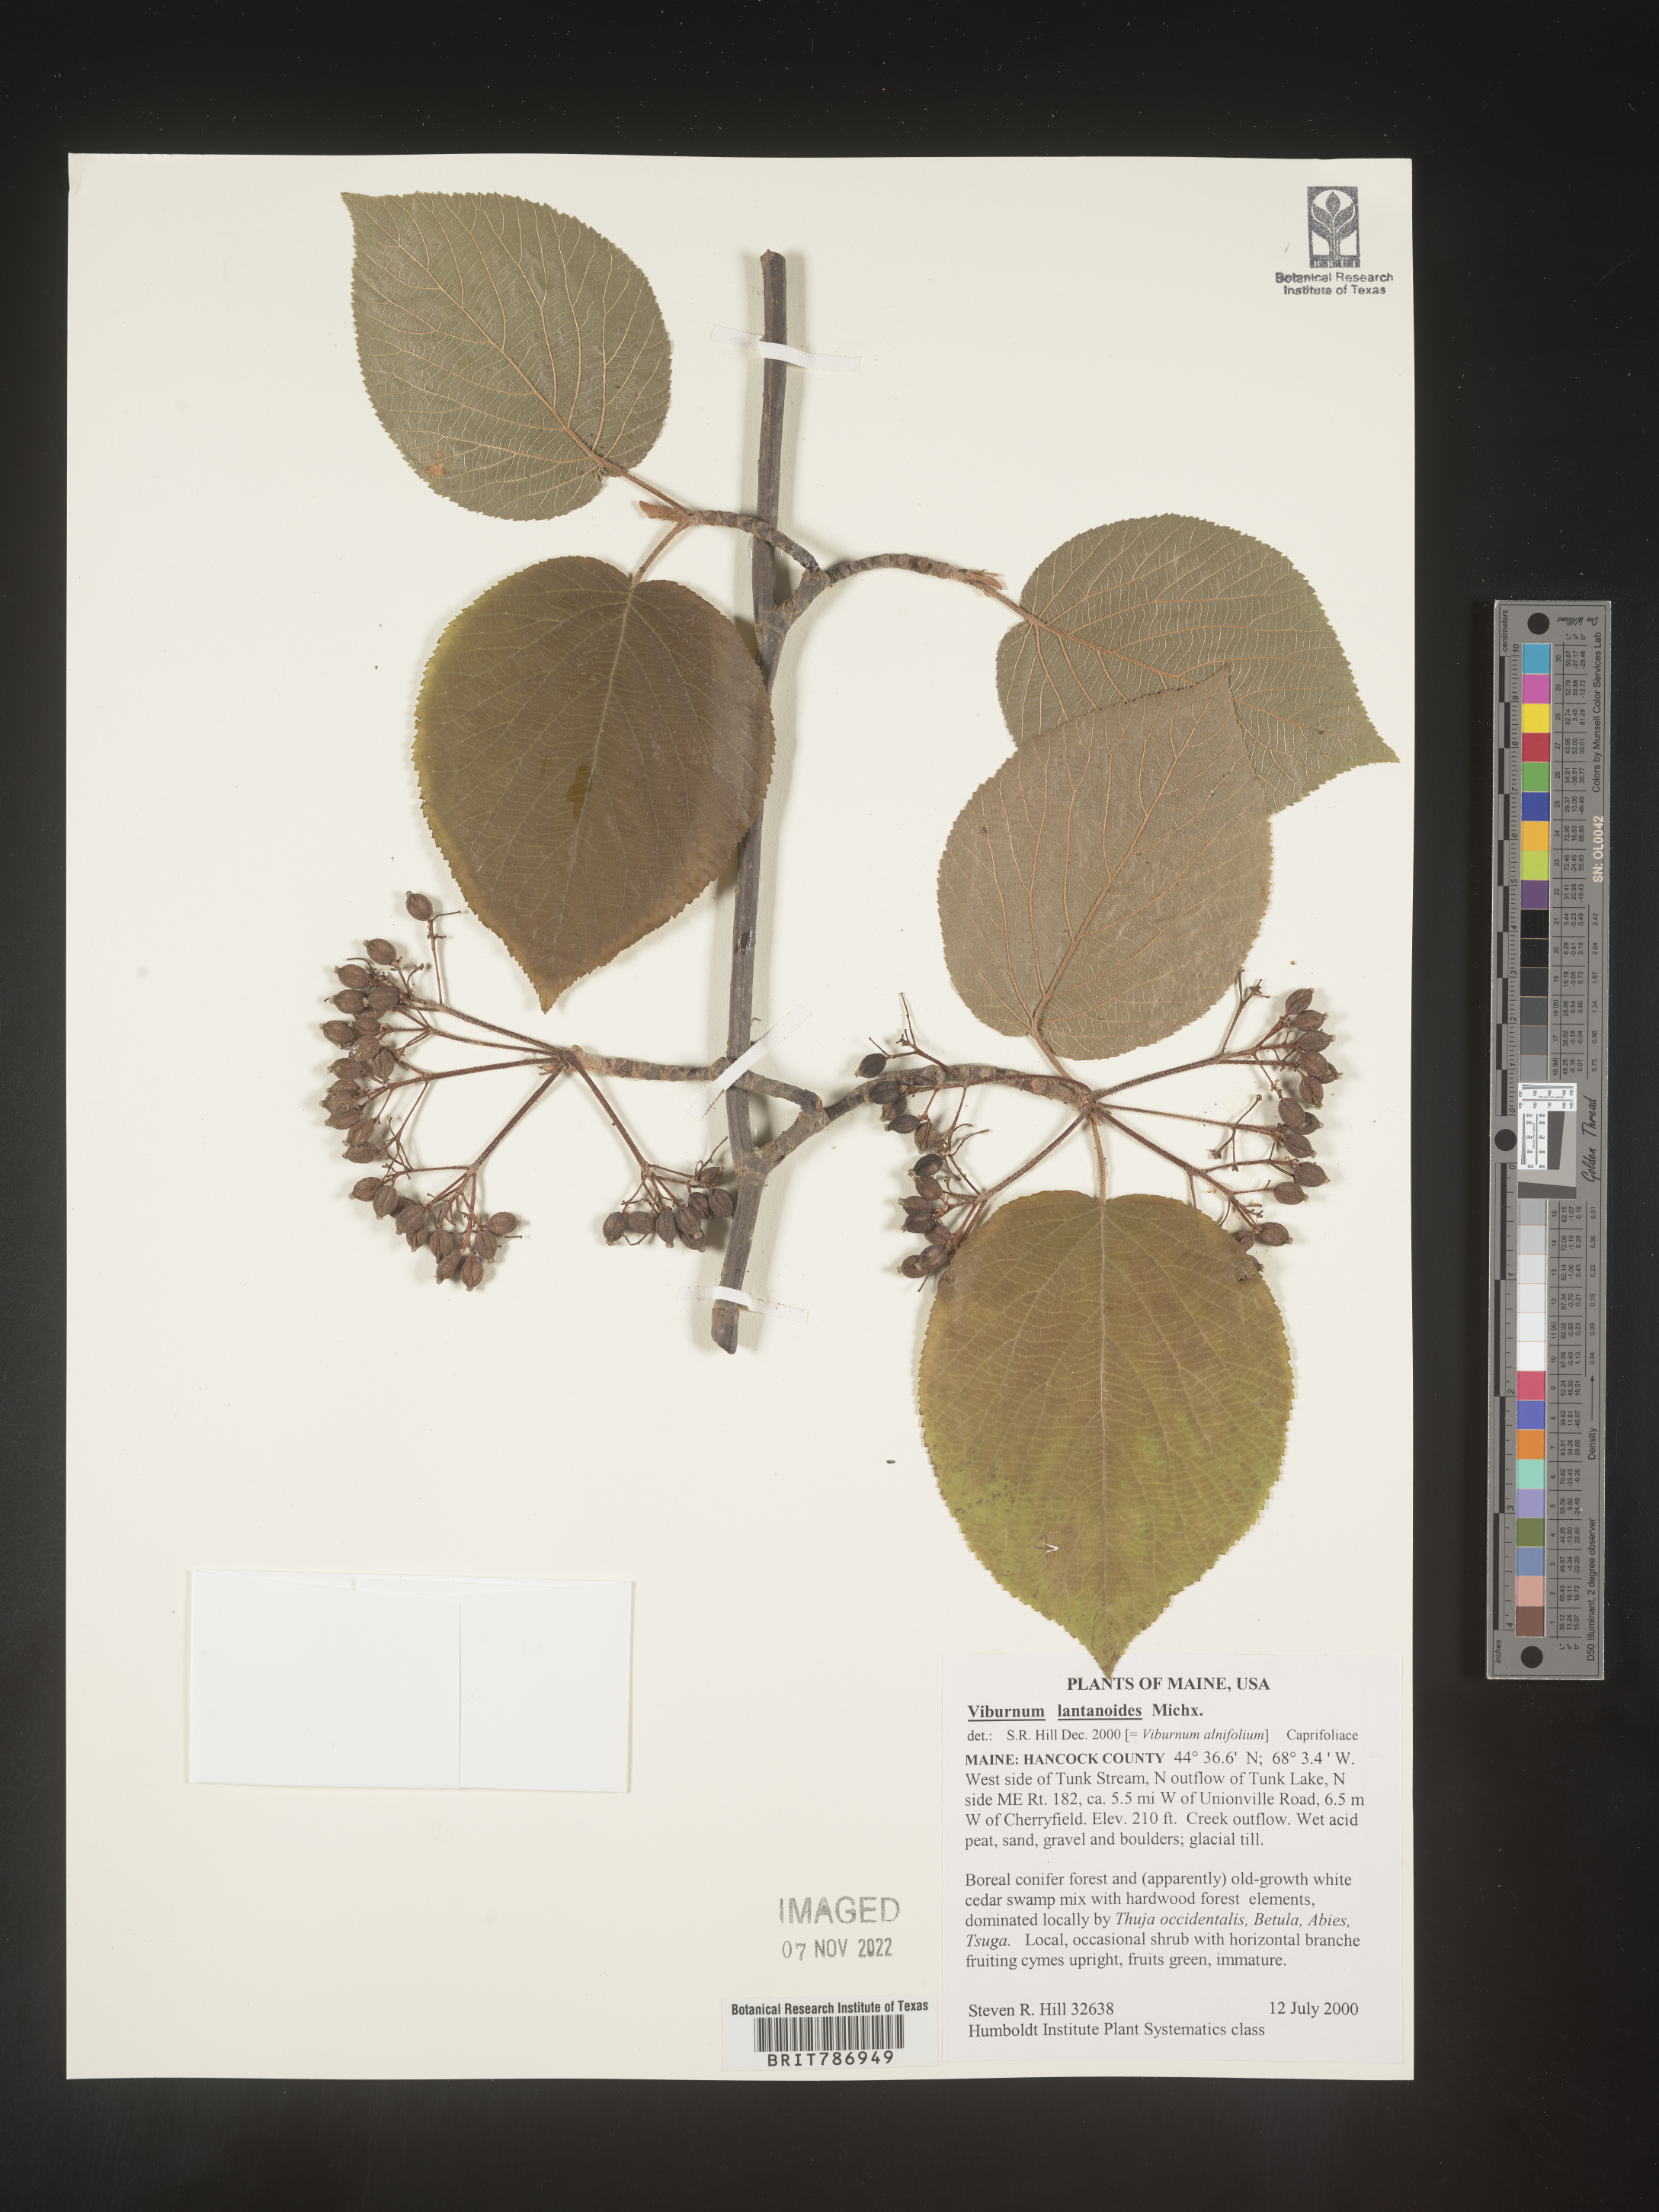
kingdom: Plantae
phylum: Tracheophyta
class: Magnoliopsida
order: Dipsacales
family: Viburnaceae
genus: Viburnum
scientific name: Viburnum lantanoides
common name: Hobblebush
